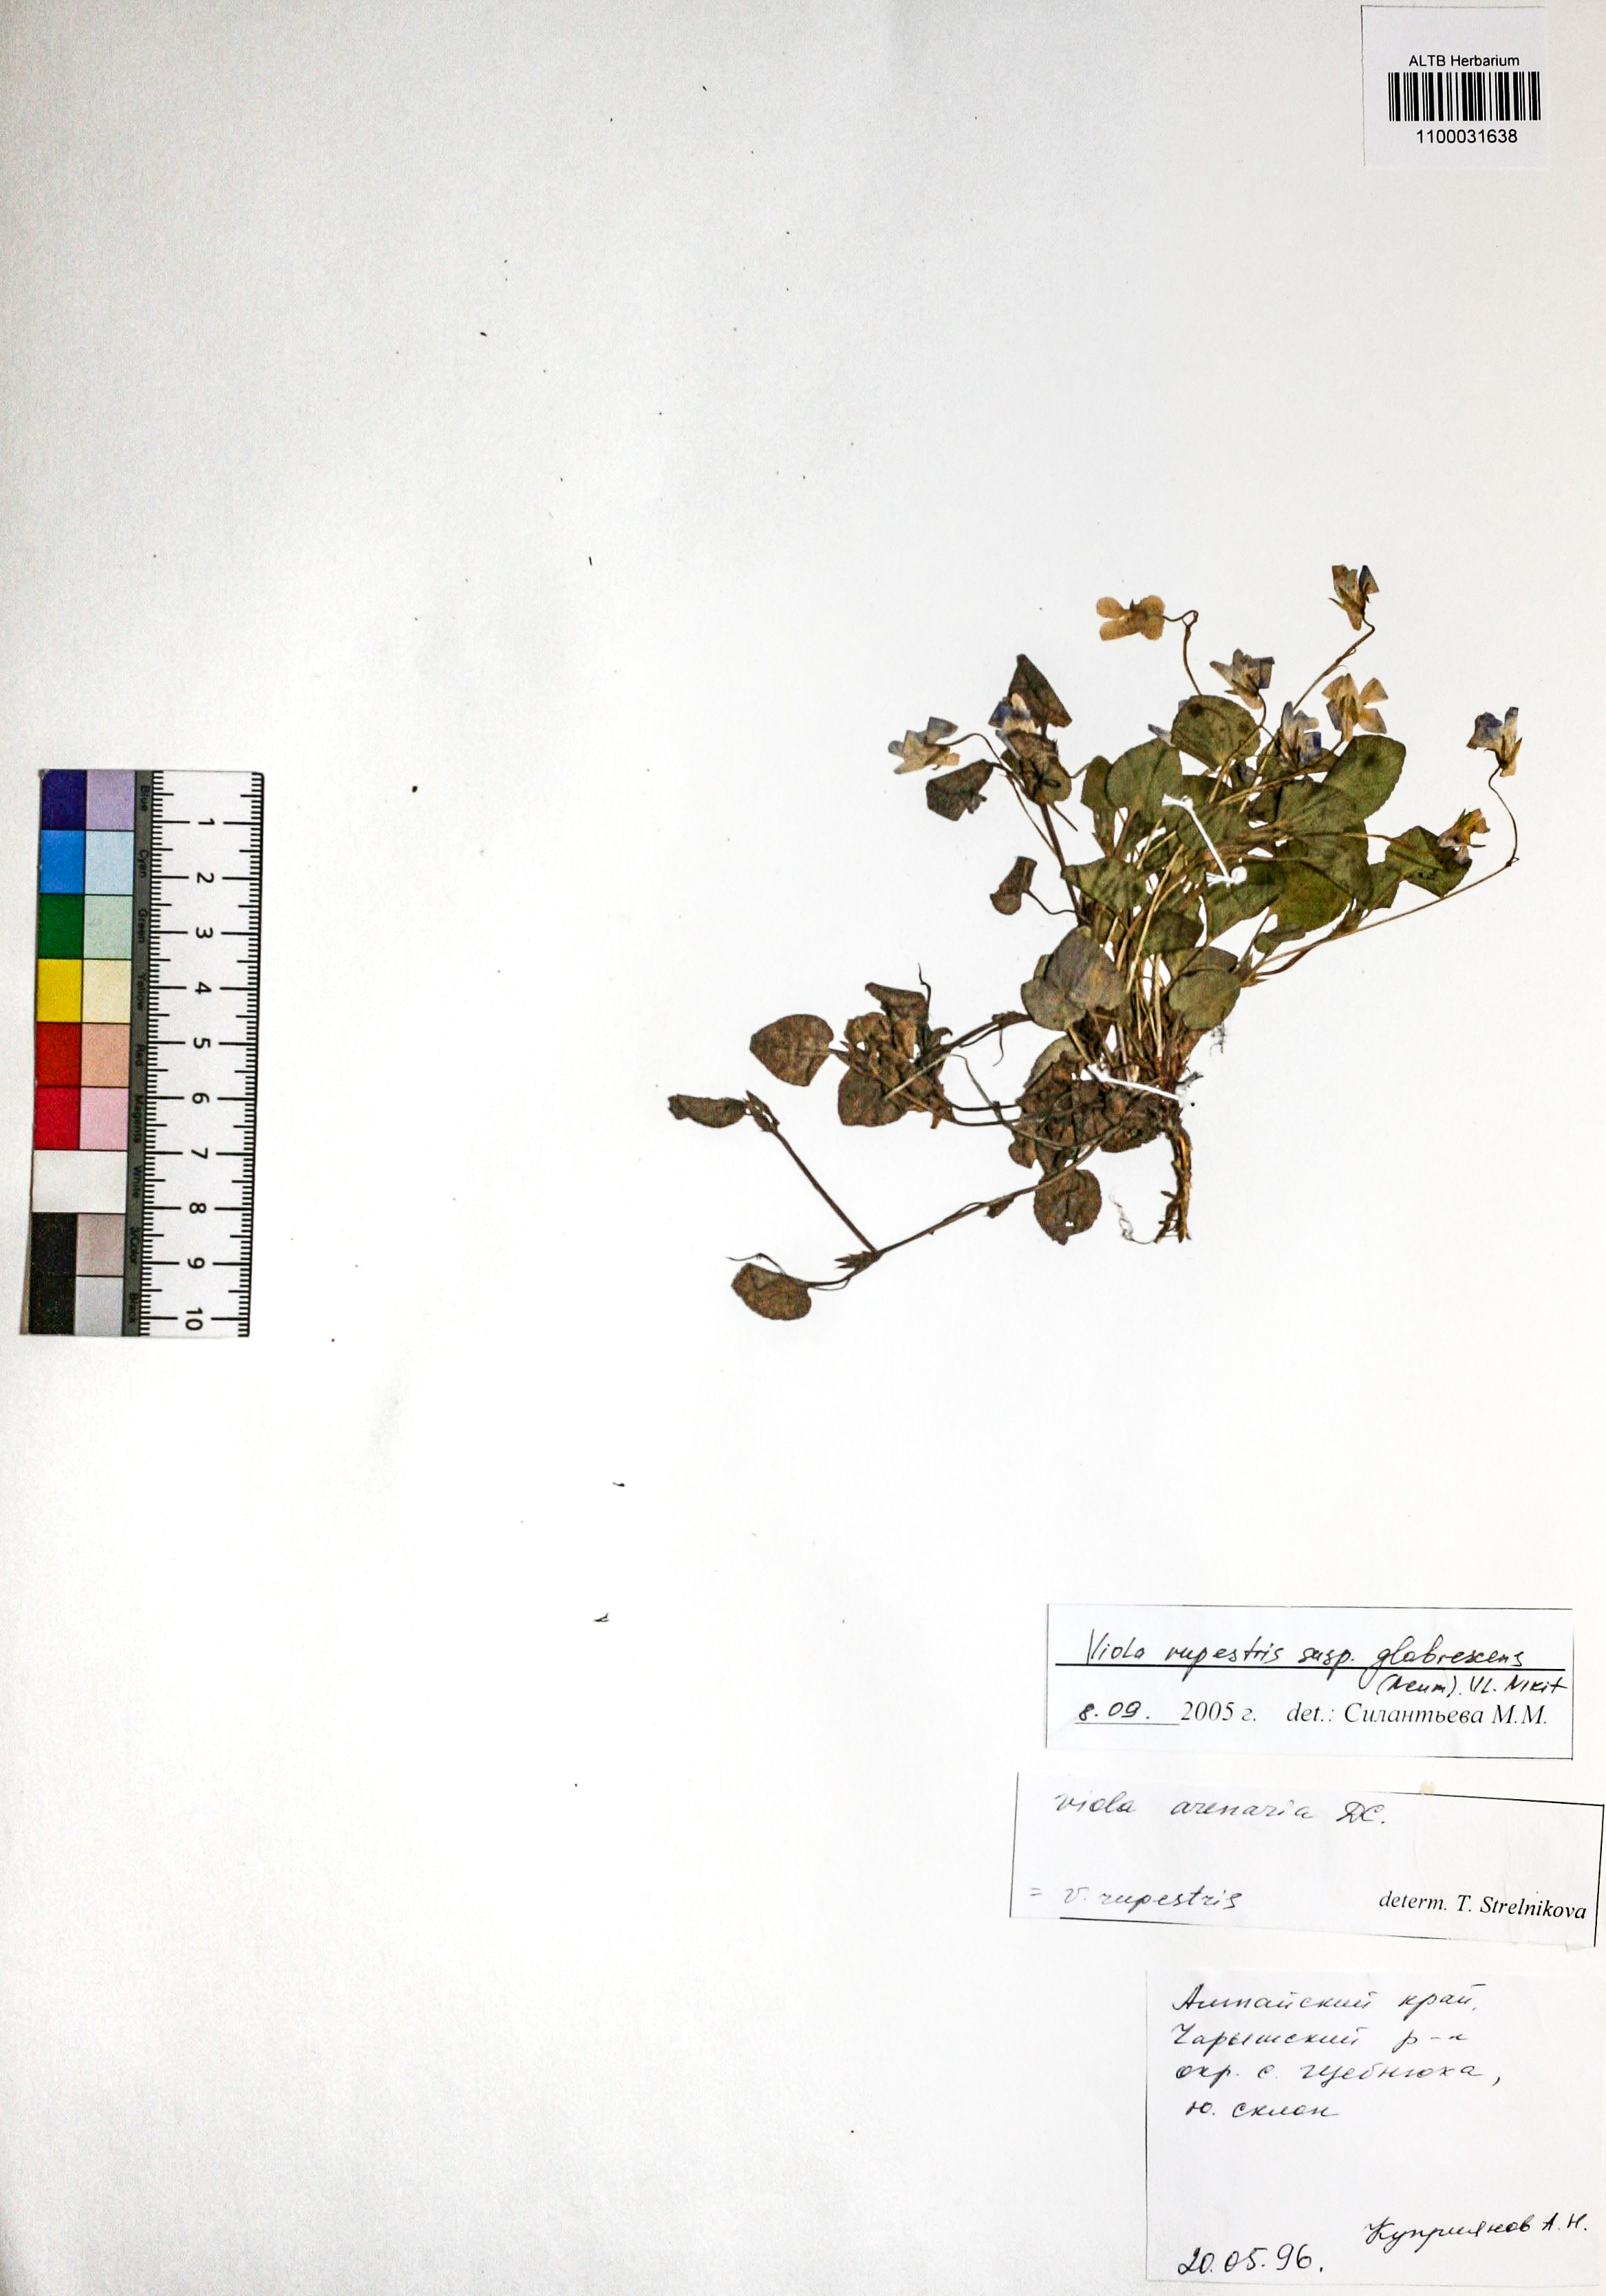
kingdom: Plantae
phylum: Tracheophyta
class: Magnoliopsida
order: Malpighiales
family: Violaceae
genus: Viola
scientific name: Viola rupestris
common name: Teesdale violet
